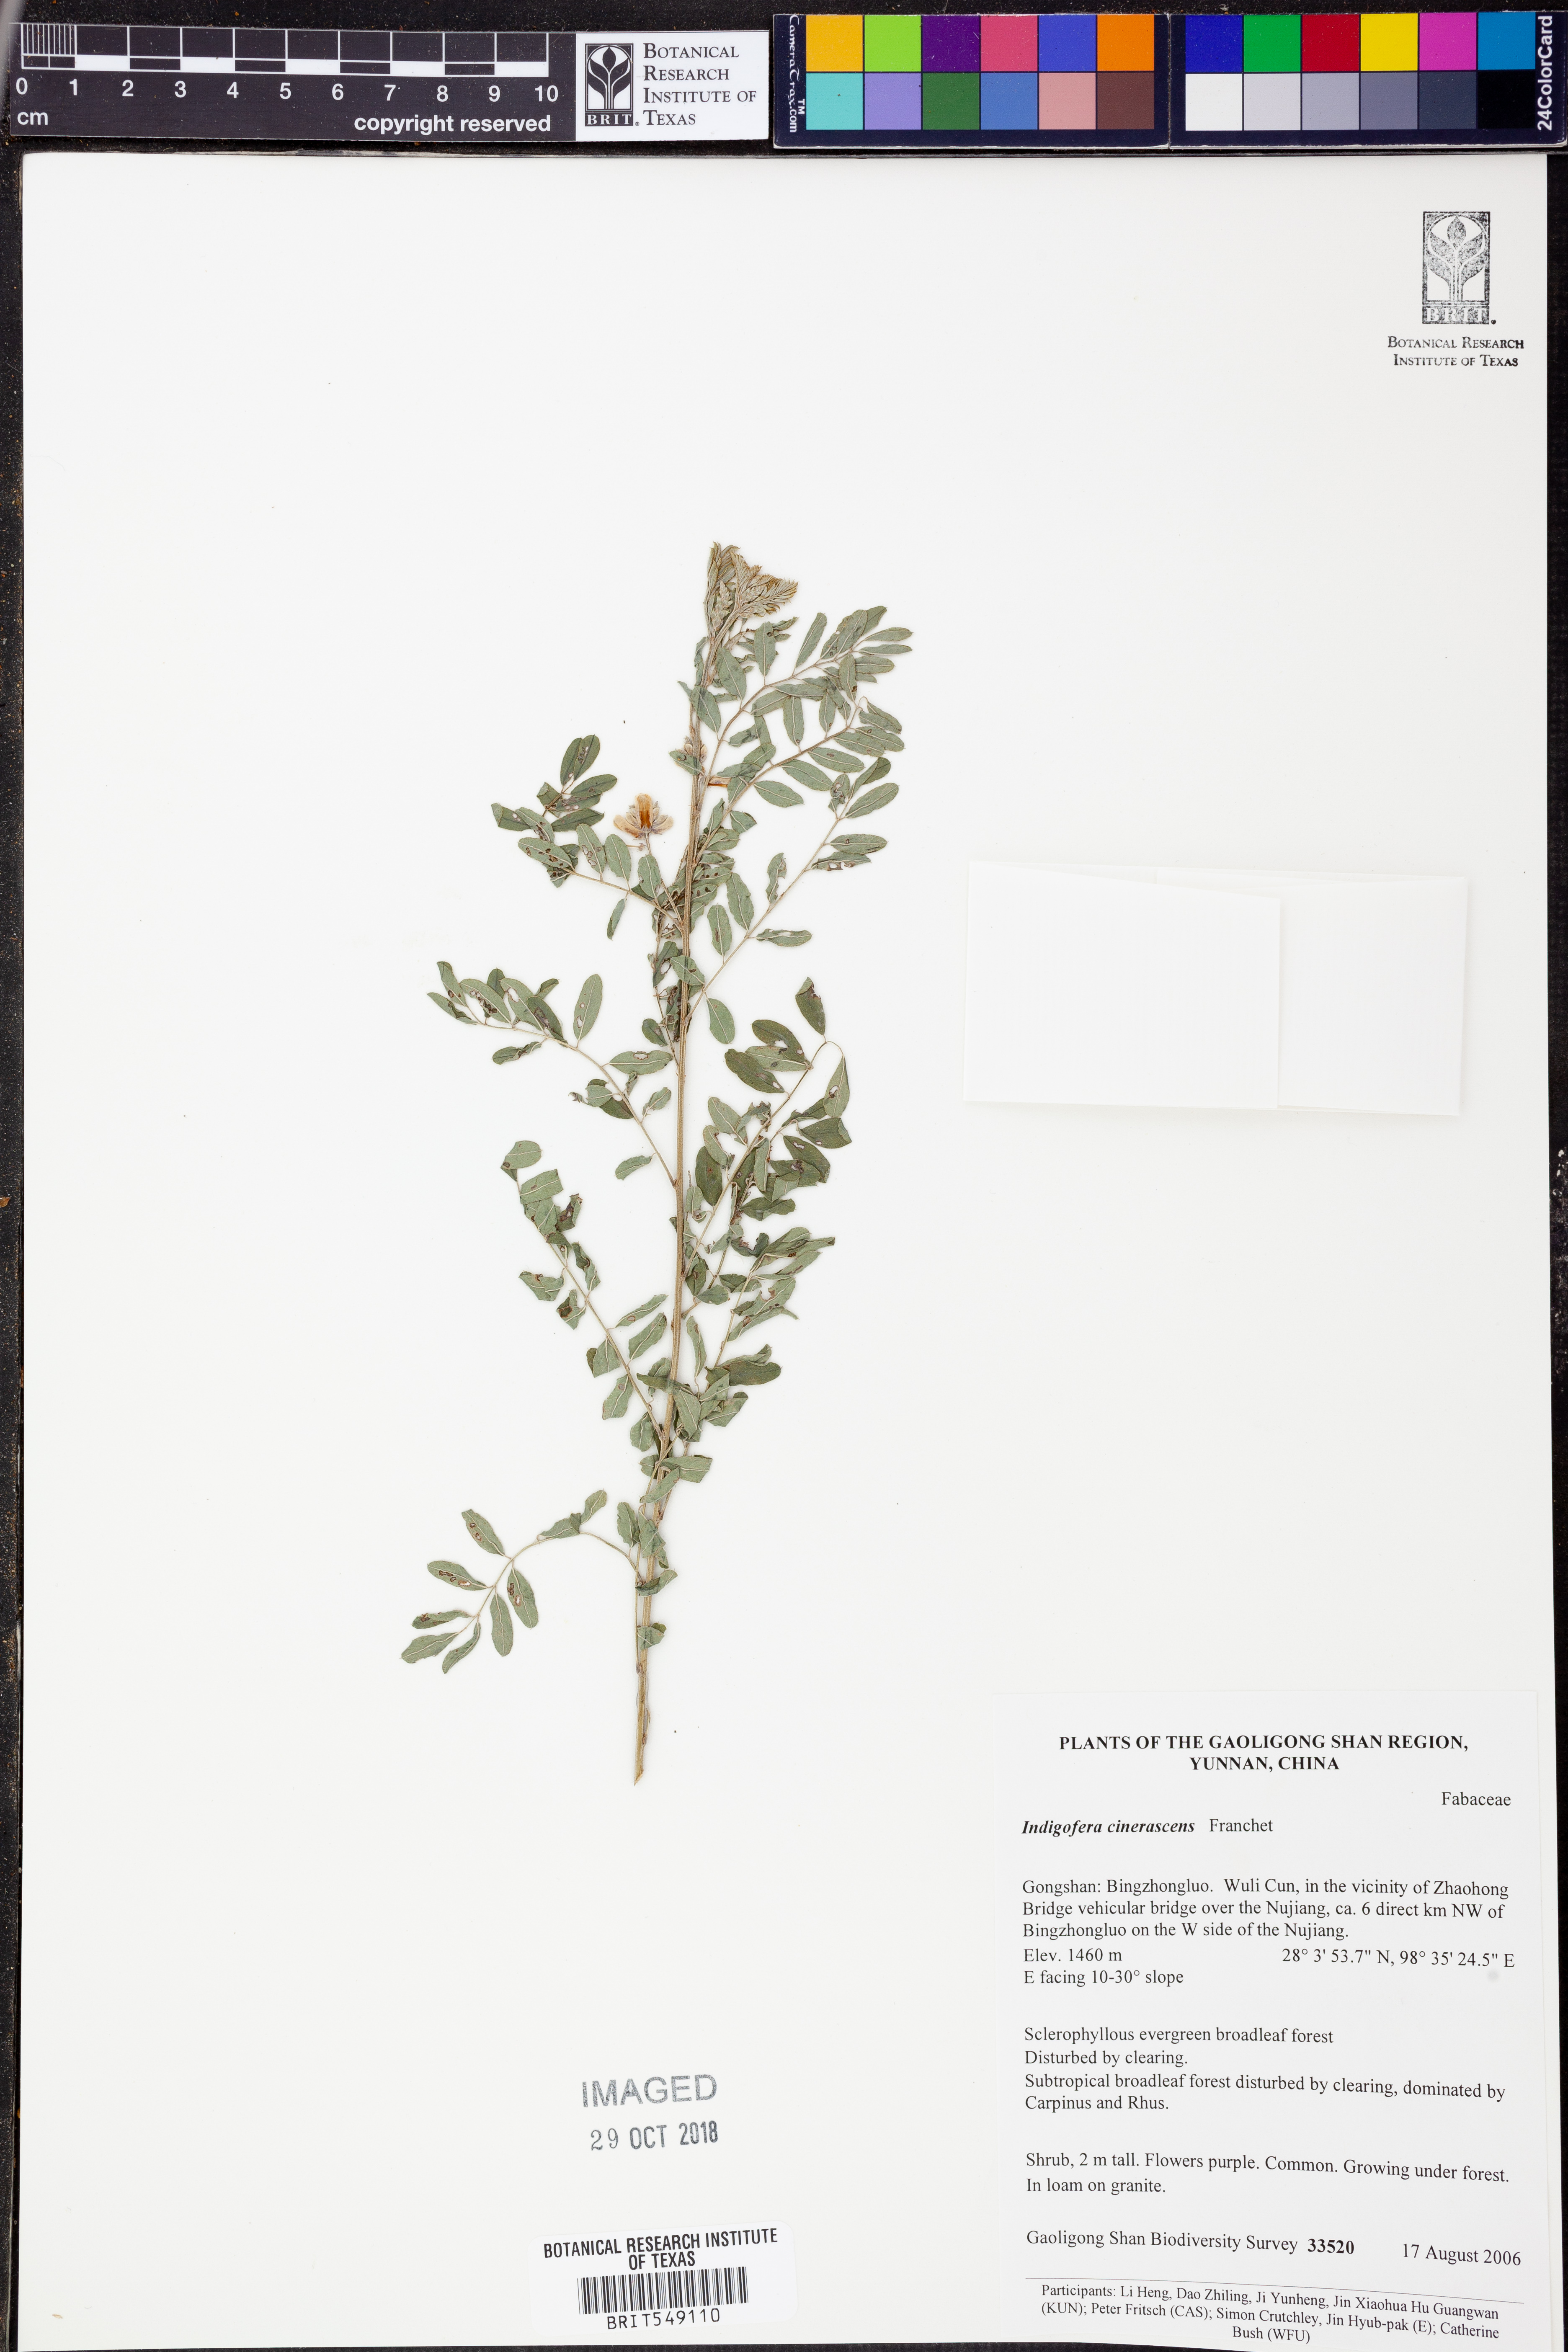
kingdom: Plantae
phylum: Tracheophyta
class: Magnoliopsida
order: Fabales
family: Fabaceae
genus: Indigofera
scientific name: Indigofera franchetii
